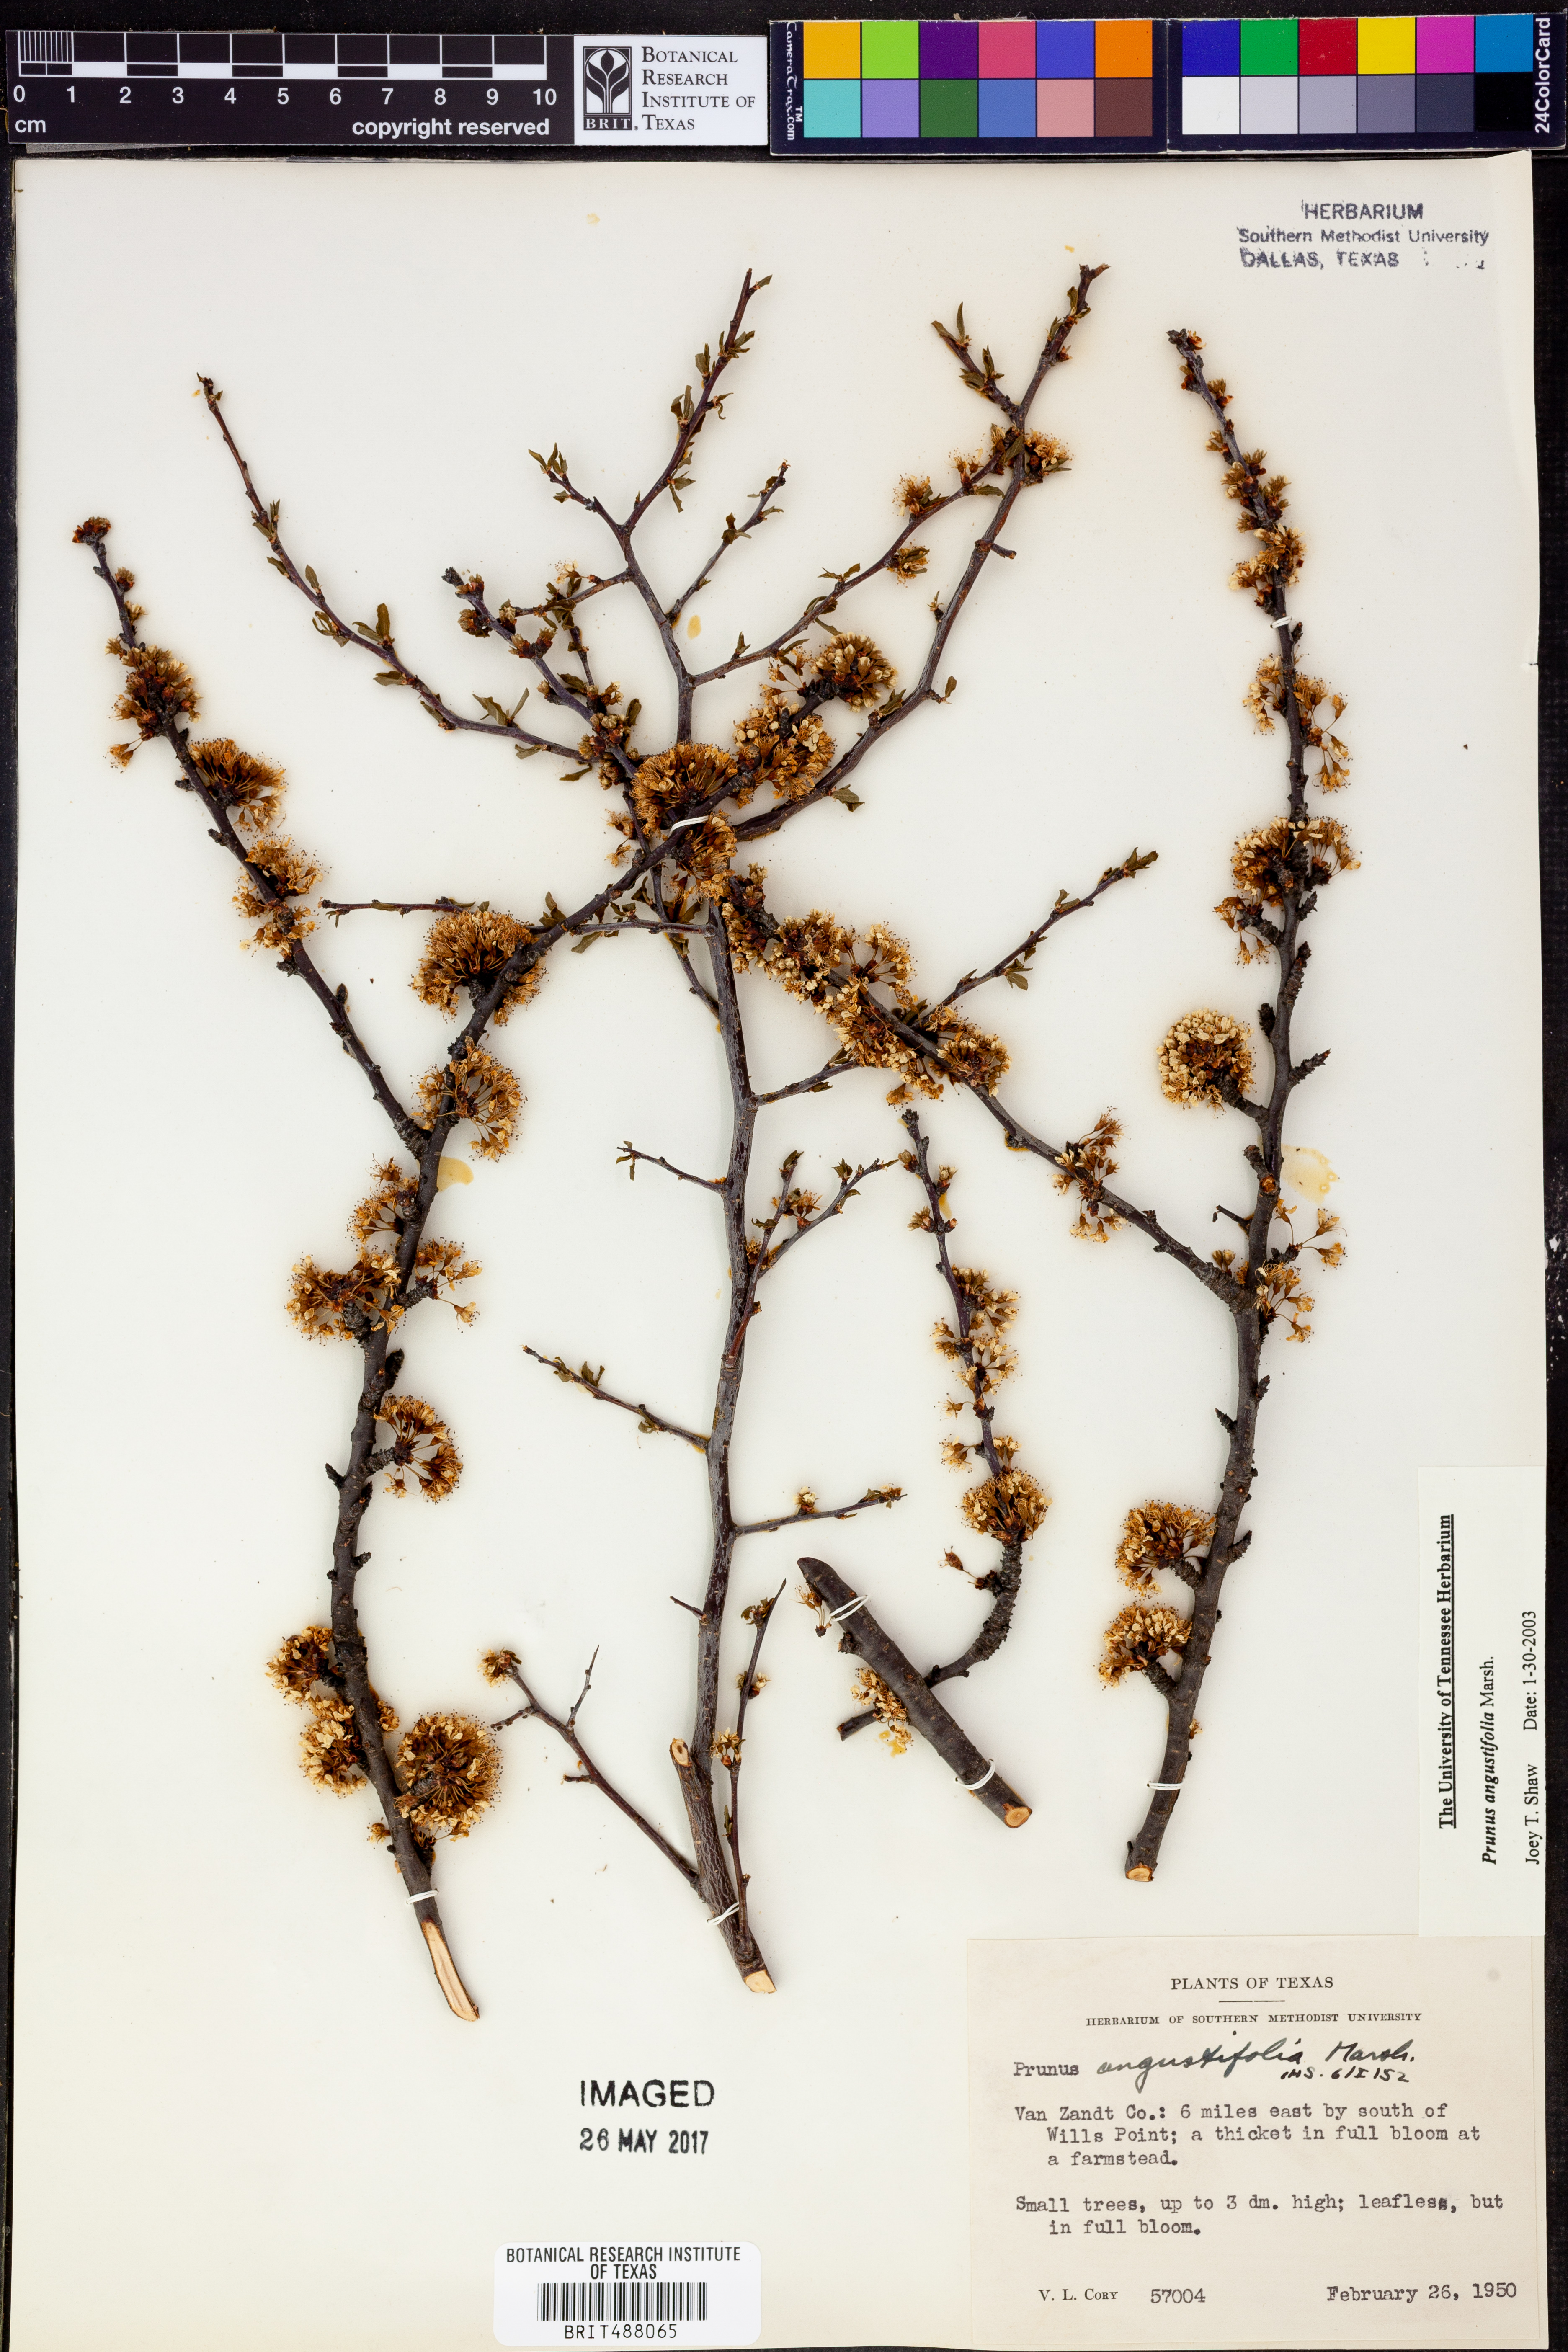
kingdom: Plantae
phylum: Tracheophyta
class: Magnoliopsida
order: Rosales
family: Rosaceae
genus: Prunus
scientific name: Prunus angustifolia
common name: Cherokee plum
